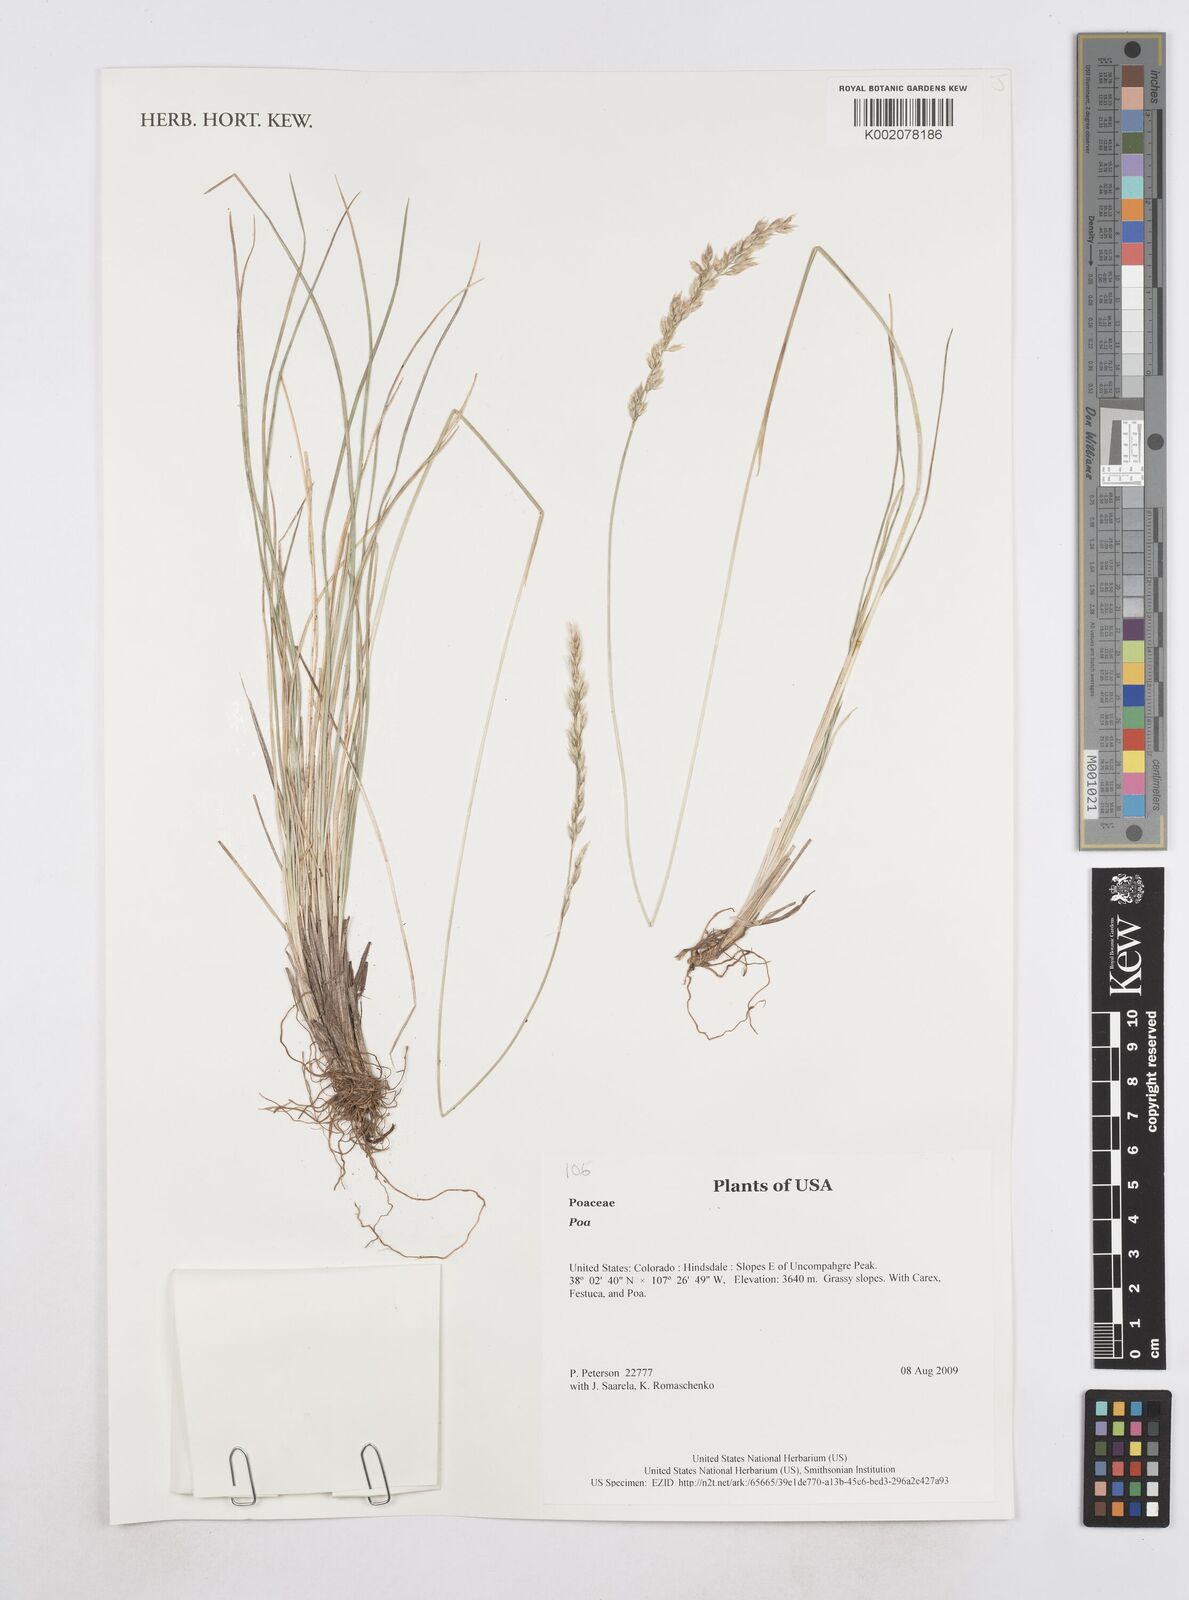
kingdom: Plantae
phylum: Tracheophyta
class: Liliopsida
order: Poales
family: Poaceae
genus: Poa
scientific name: Poa
